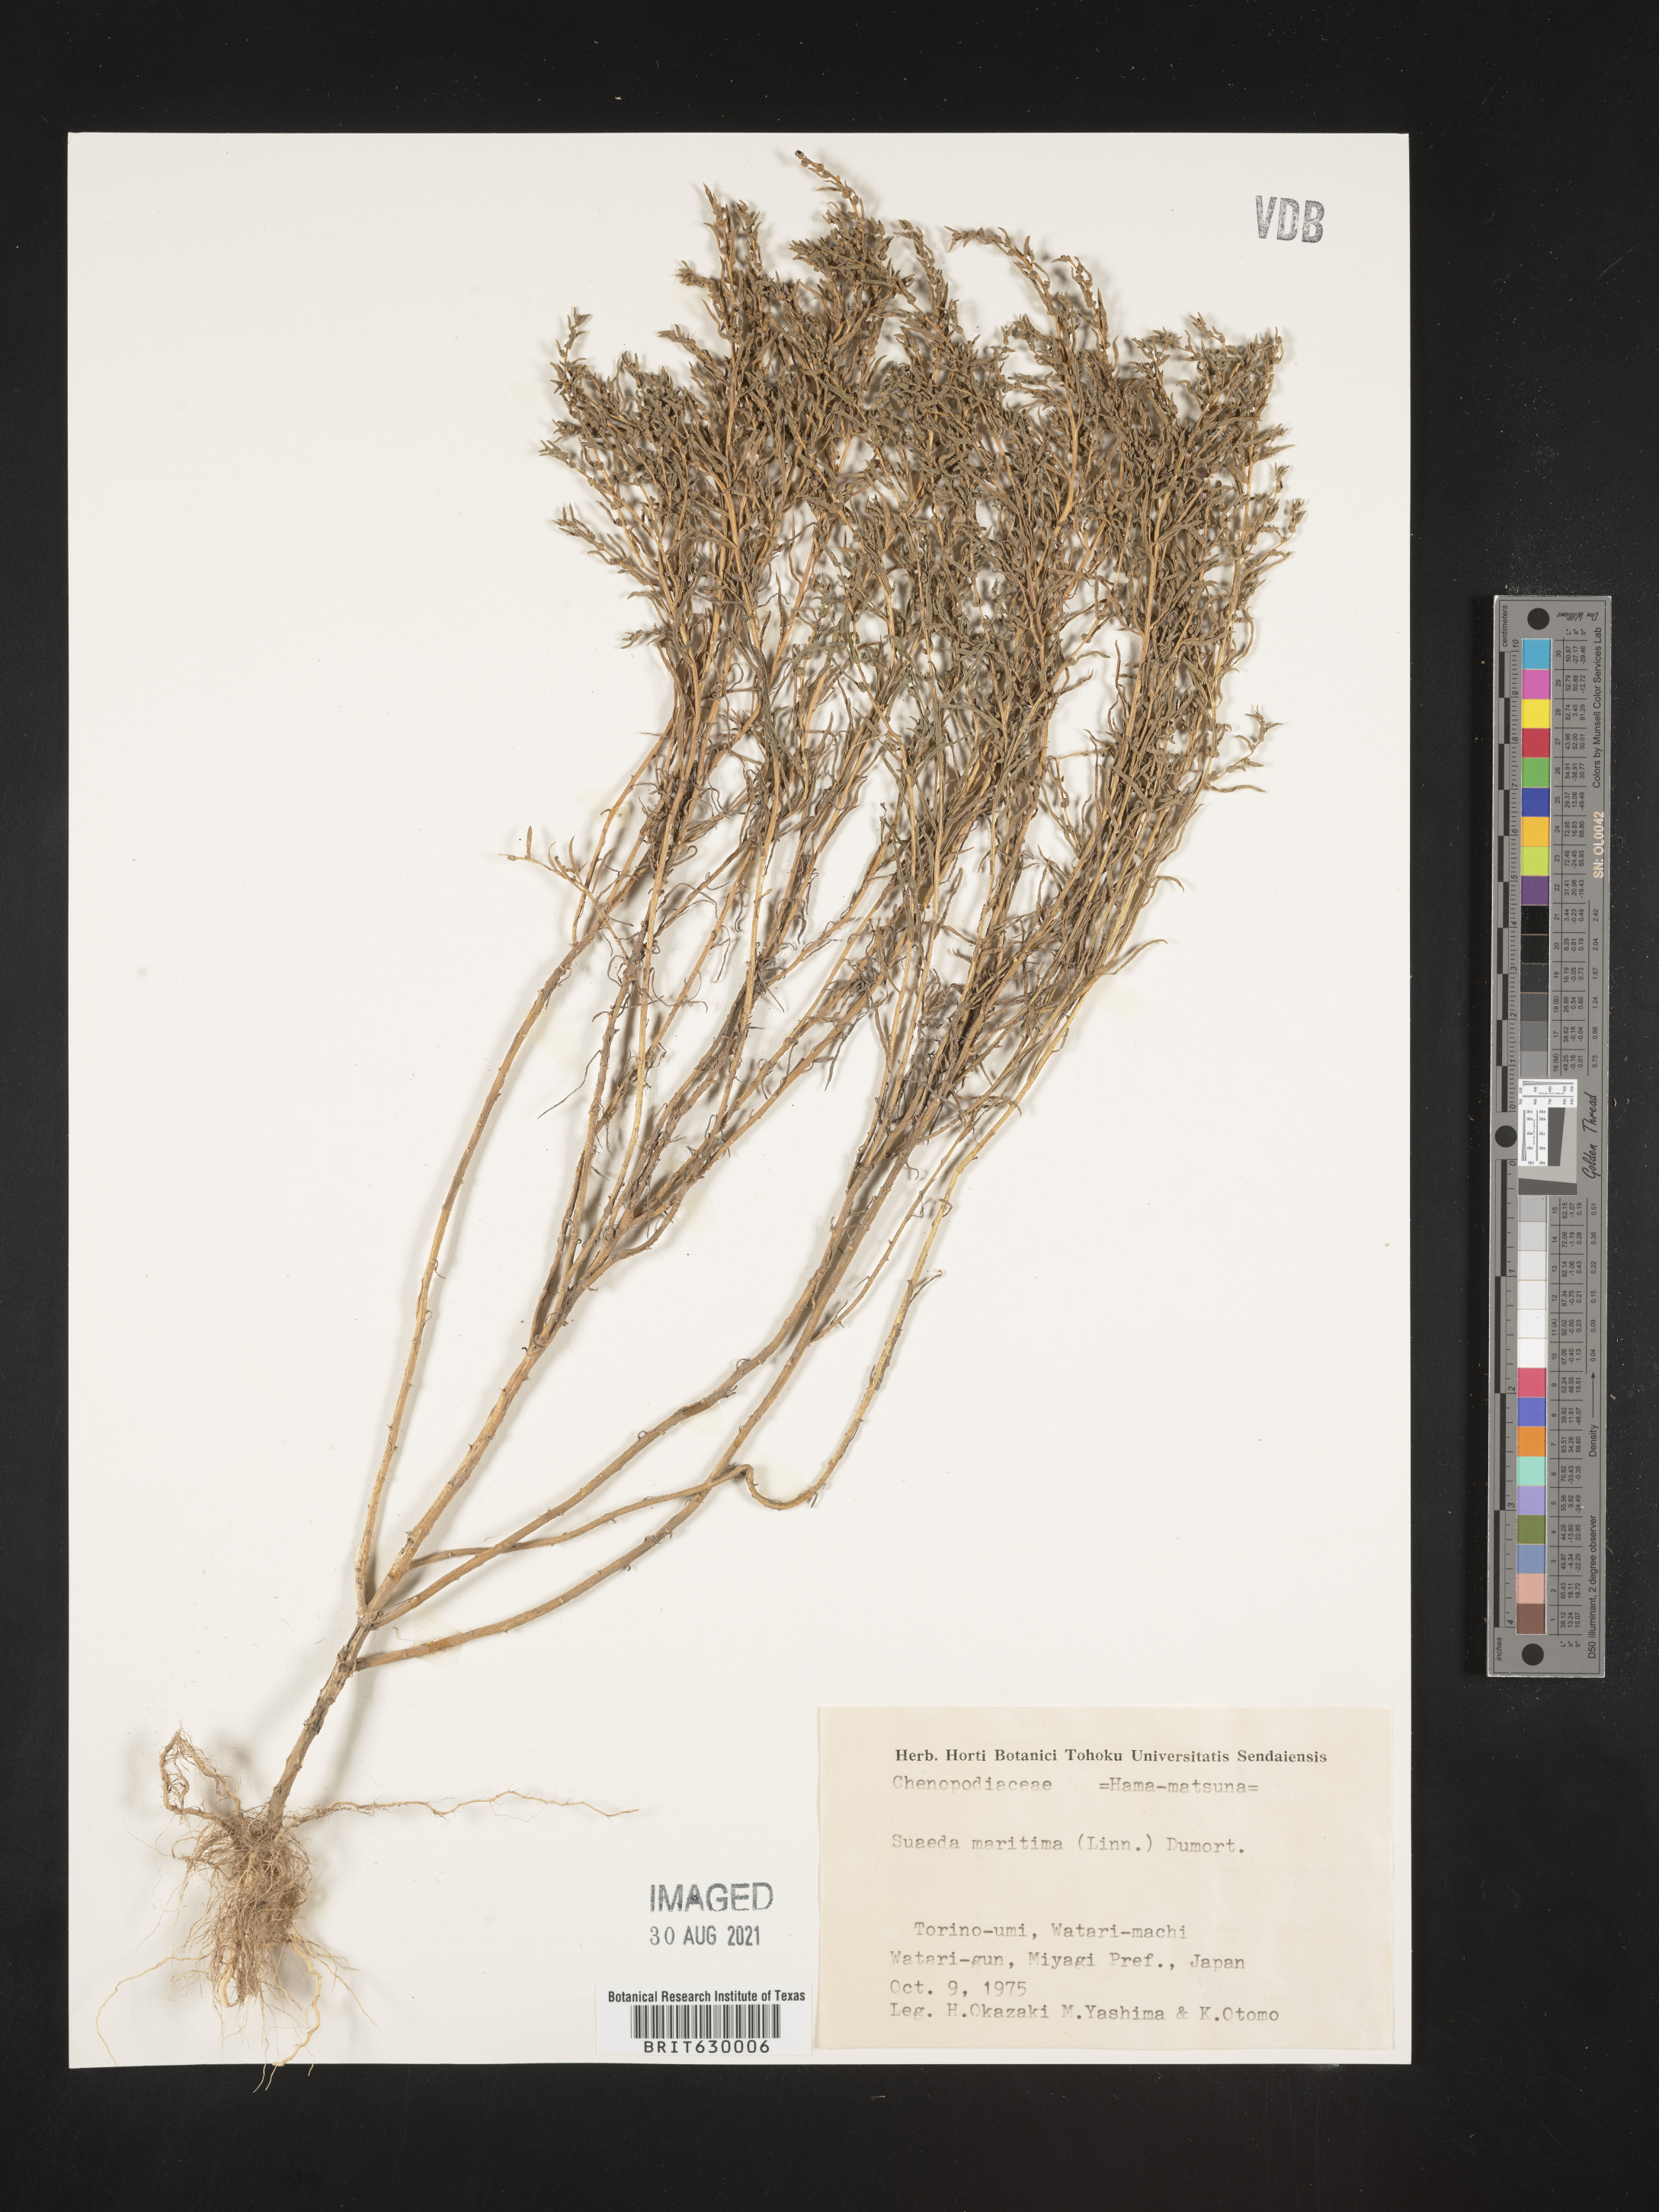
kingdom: Plantae
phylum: Tracheophyta
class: Magnoliopsida
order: Caryophyllales
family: Amaranthaceae
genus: Suaeda
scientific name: Suaeda maritima
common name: Annual sea-blite
